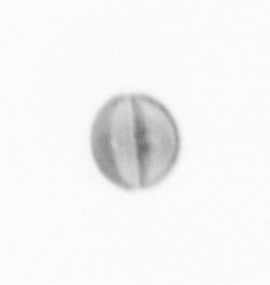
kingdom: Chromista
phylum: Ochrophyta
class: Bacillariophyceae
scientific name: Bacillariophyceae
